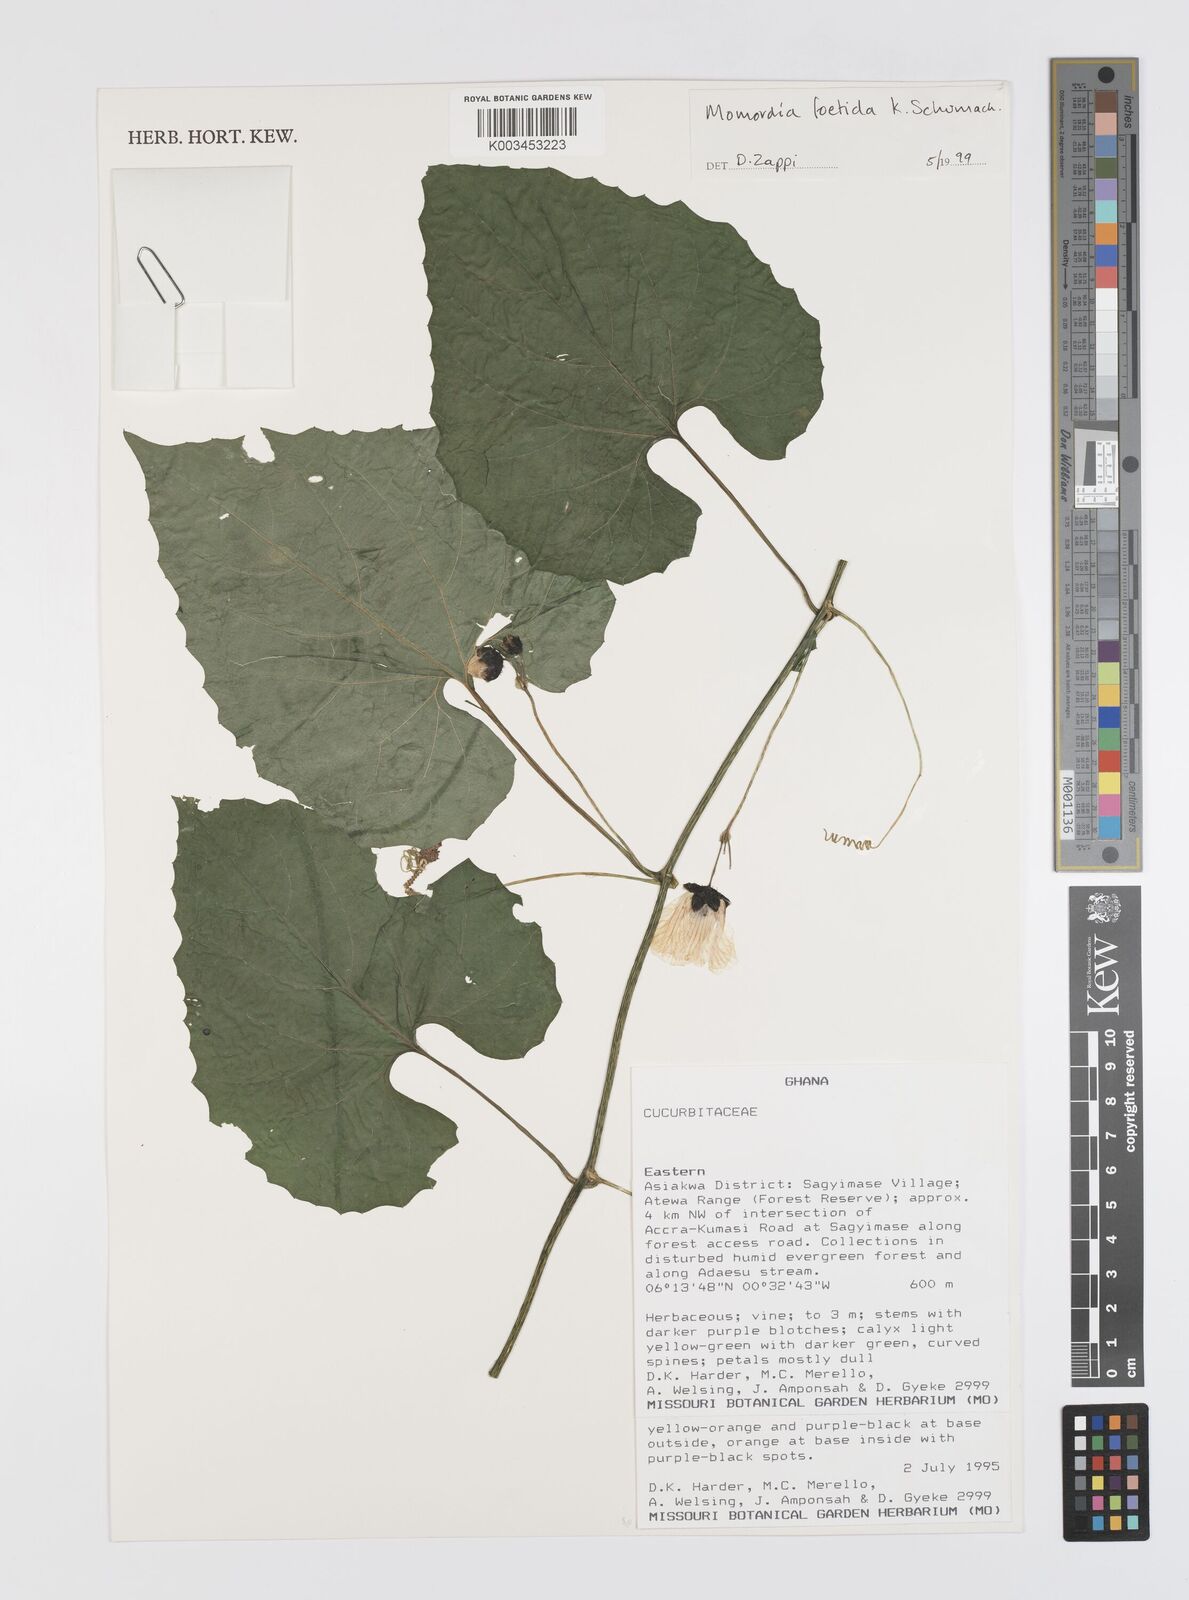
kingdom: Plantae
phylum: Tracheophyta
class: Magnoliopsida
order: Cucurbitales
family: Cucurbitaceae
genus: Momordica
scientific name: Momordica foetida
